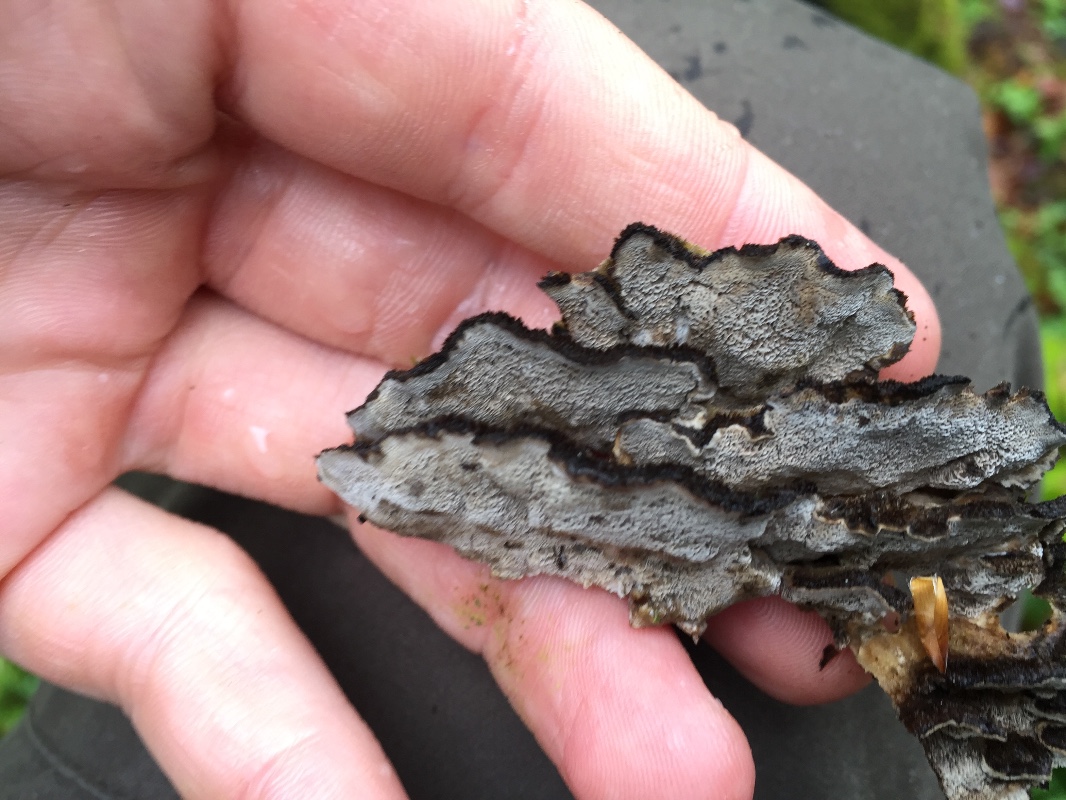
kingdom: Fungi
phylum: Basidiomycota
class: Agaricomycetes
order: Polyporales
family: Phanerochaetaceae
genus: Bjerkandera
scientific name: Bjerkandera adusta
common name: sveden sodporesvamp
